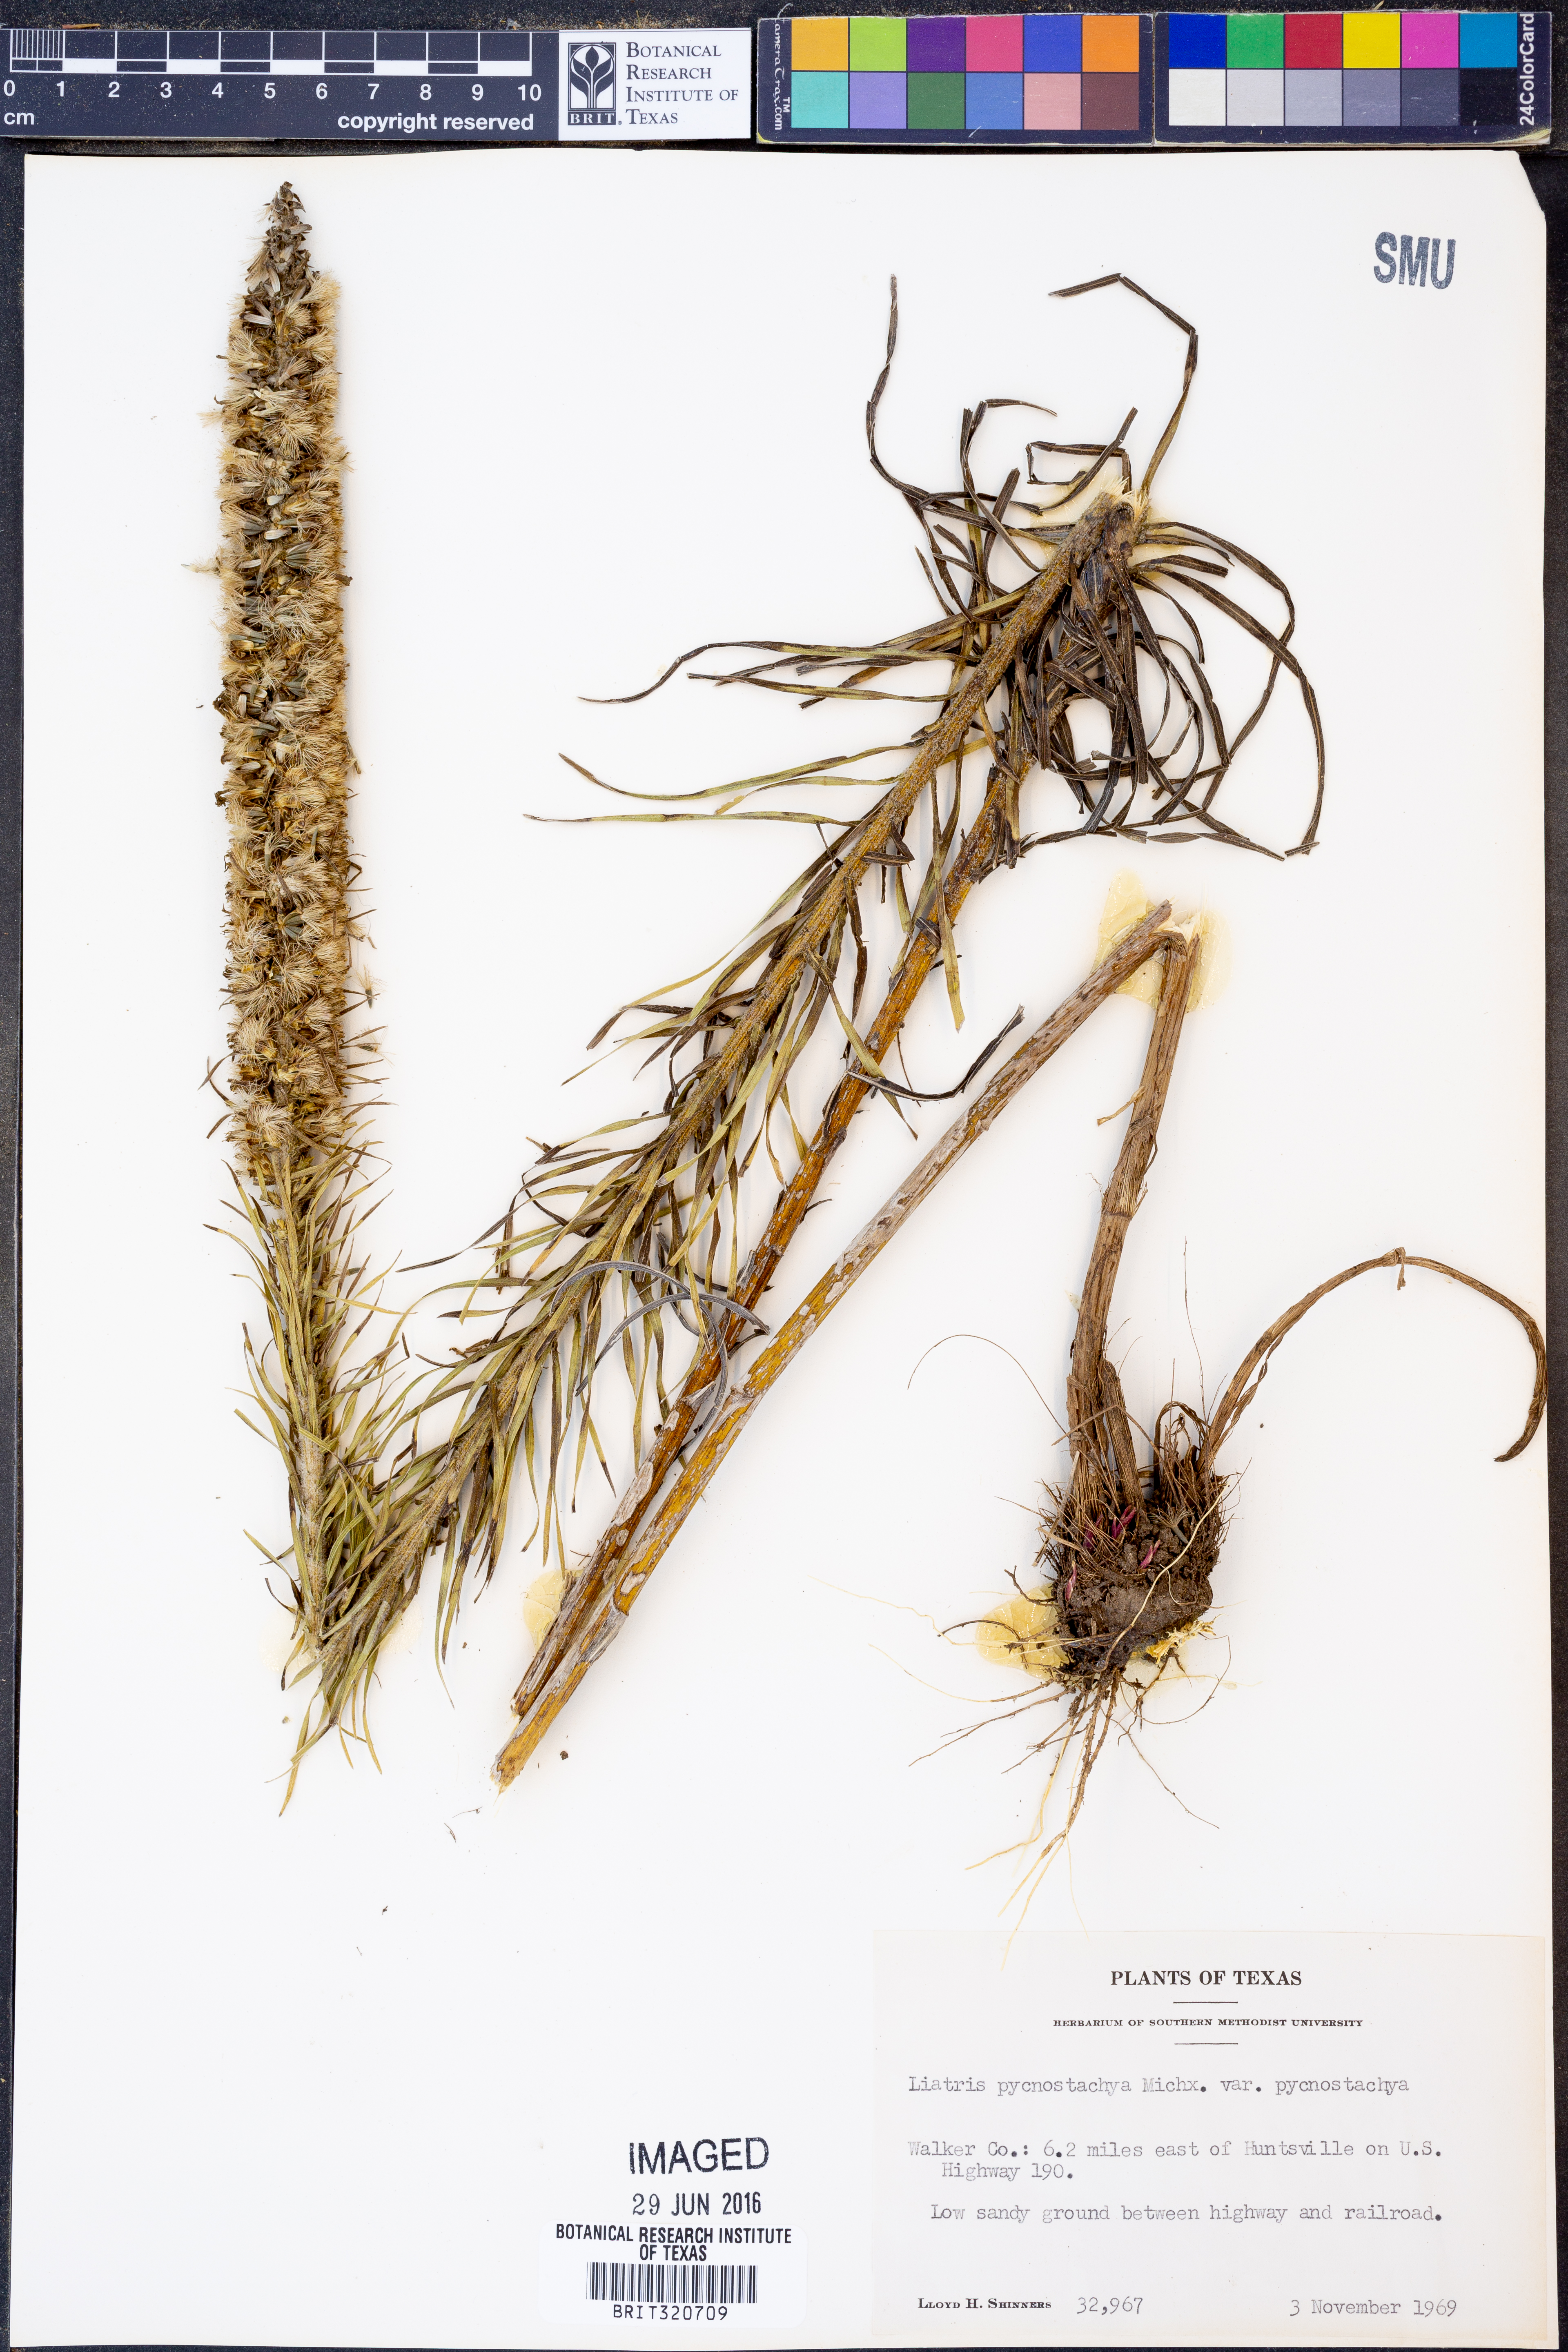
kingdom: Plantae
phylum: Tracheophyta
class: Magnoliopsida
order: Asterales
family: Asteraceae
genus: Liatris
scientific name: Liatris pycnostachya
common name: Cattail gayfeather
